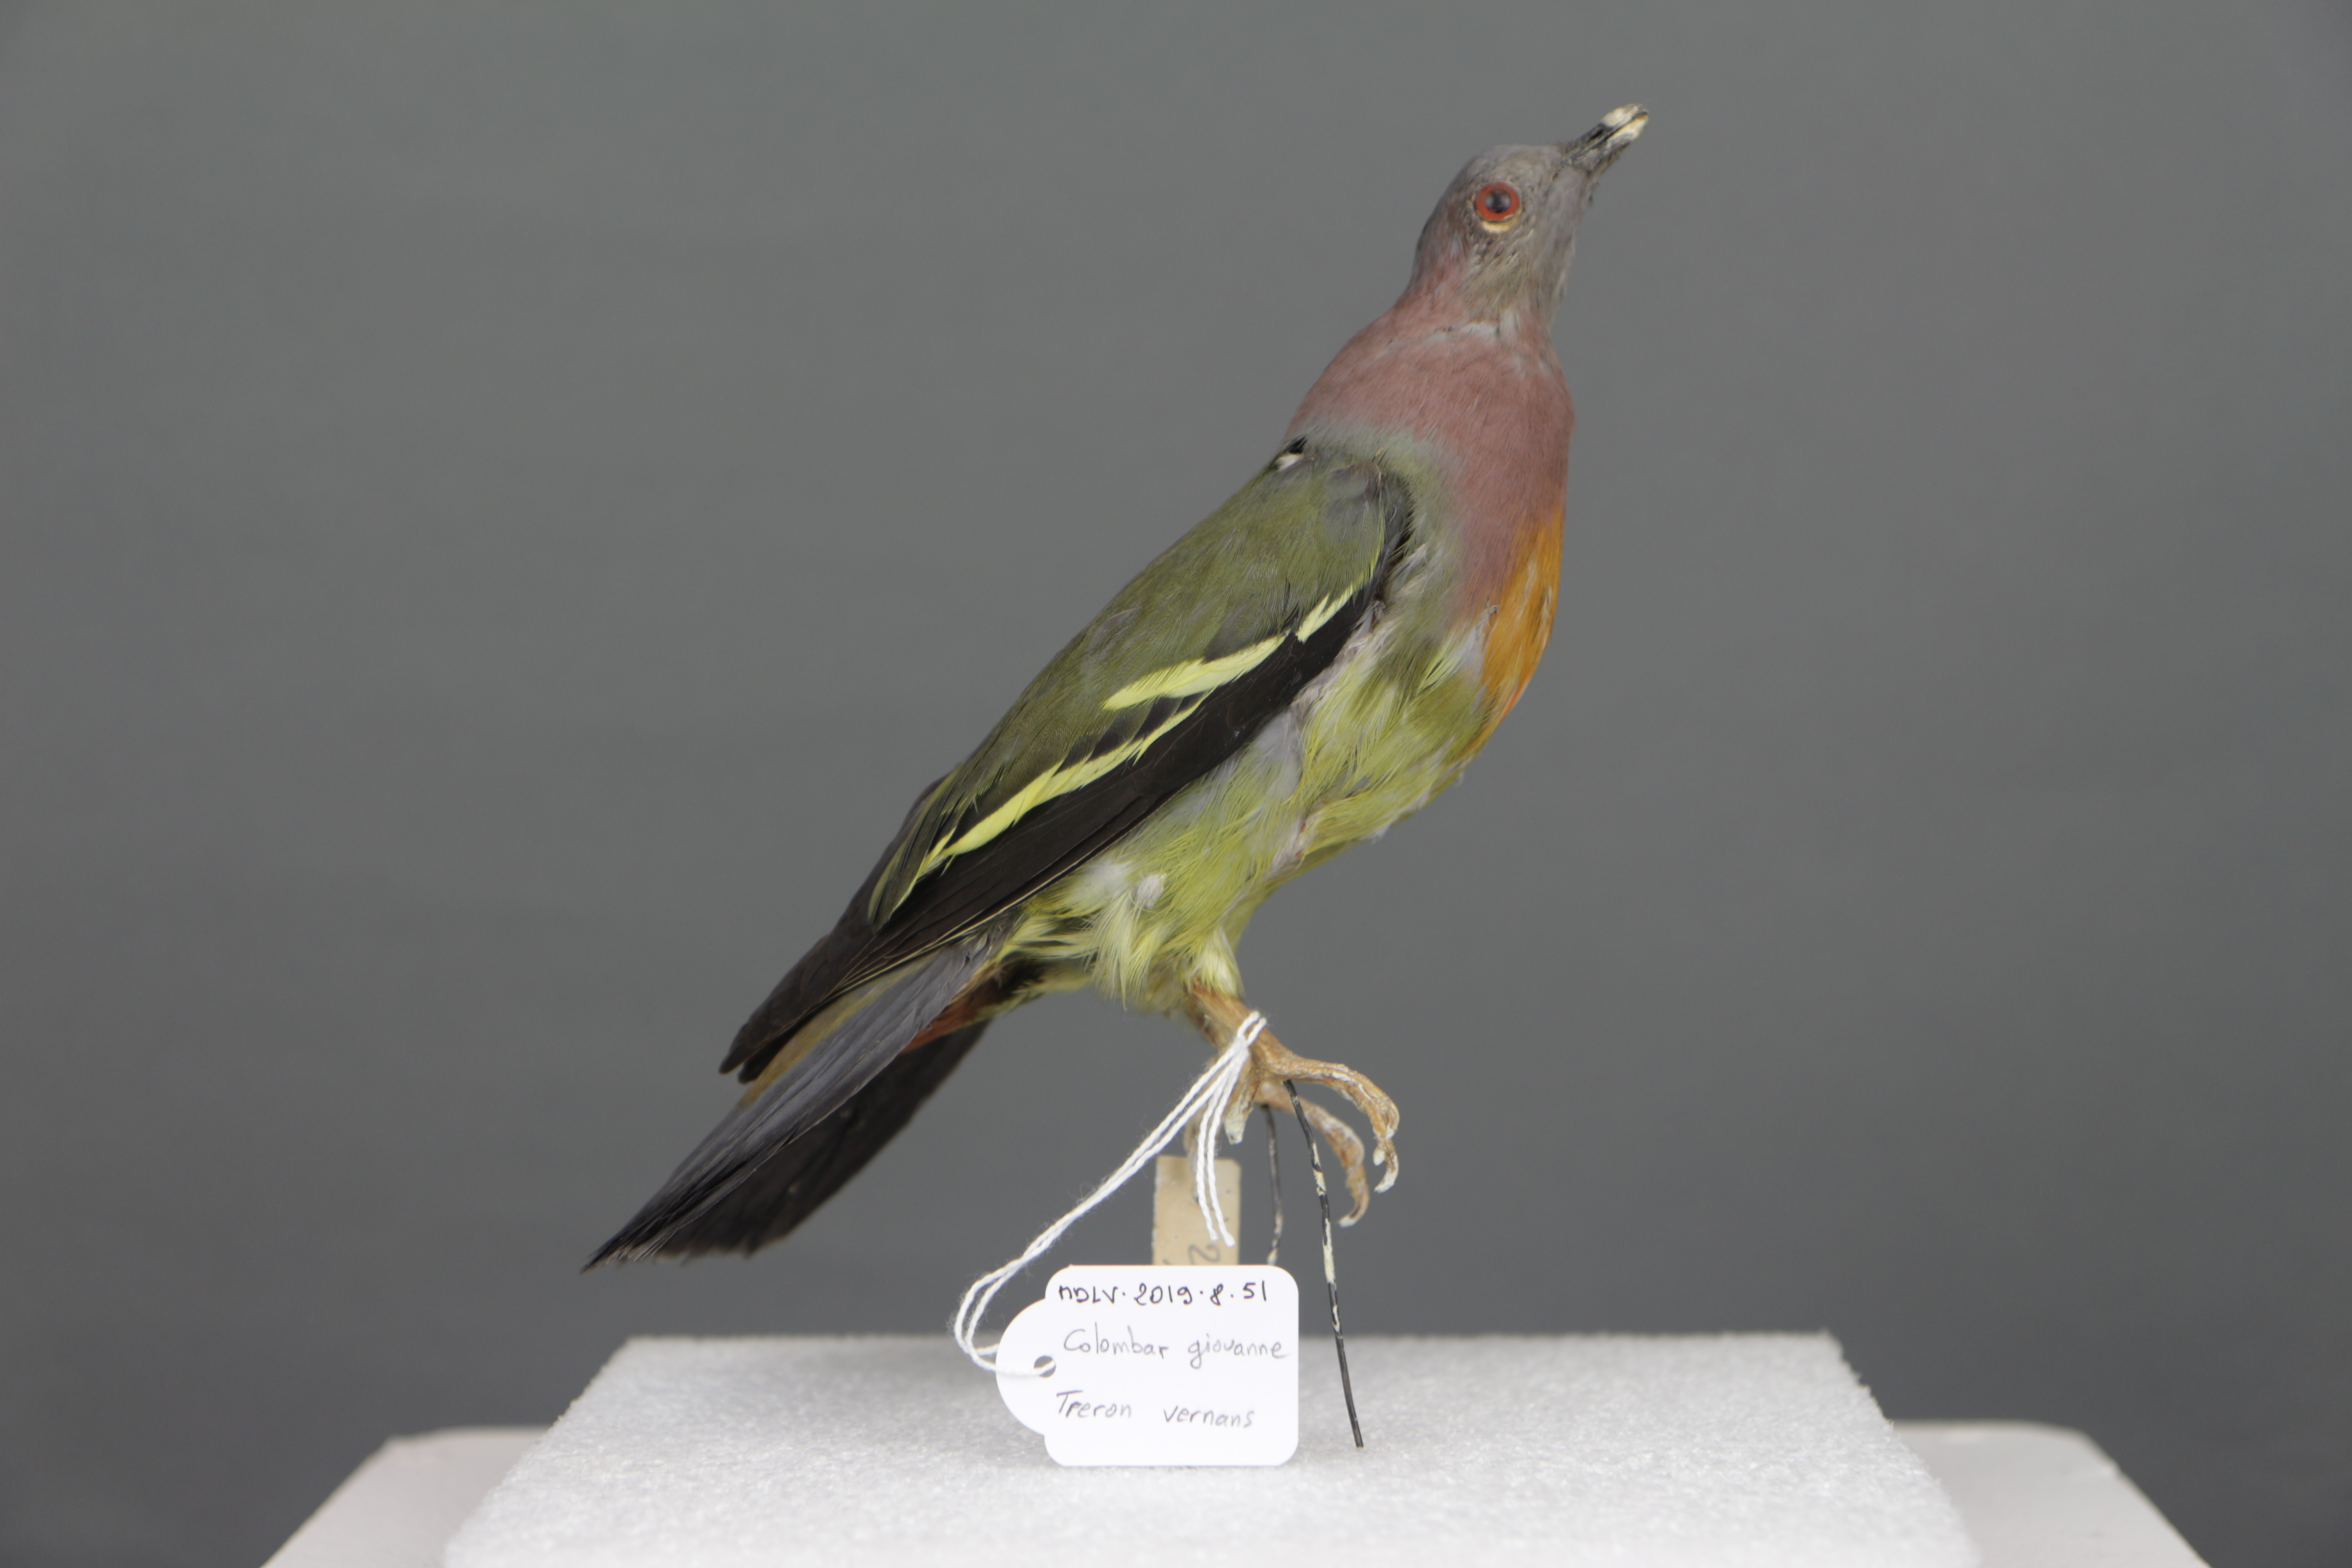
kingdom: Animalia
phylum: Chordata
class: Aves
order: Columbiformes
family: Columbidae
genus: Treron
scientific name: Treron vernans
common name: Pink-necked green pigeon
